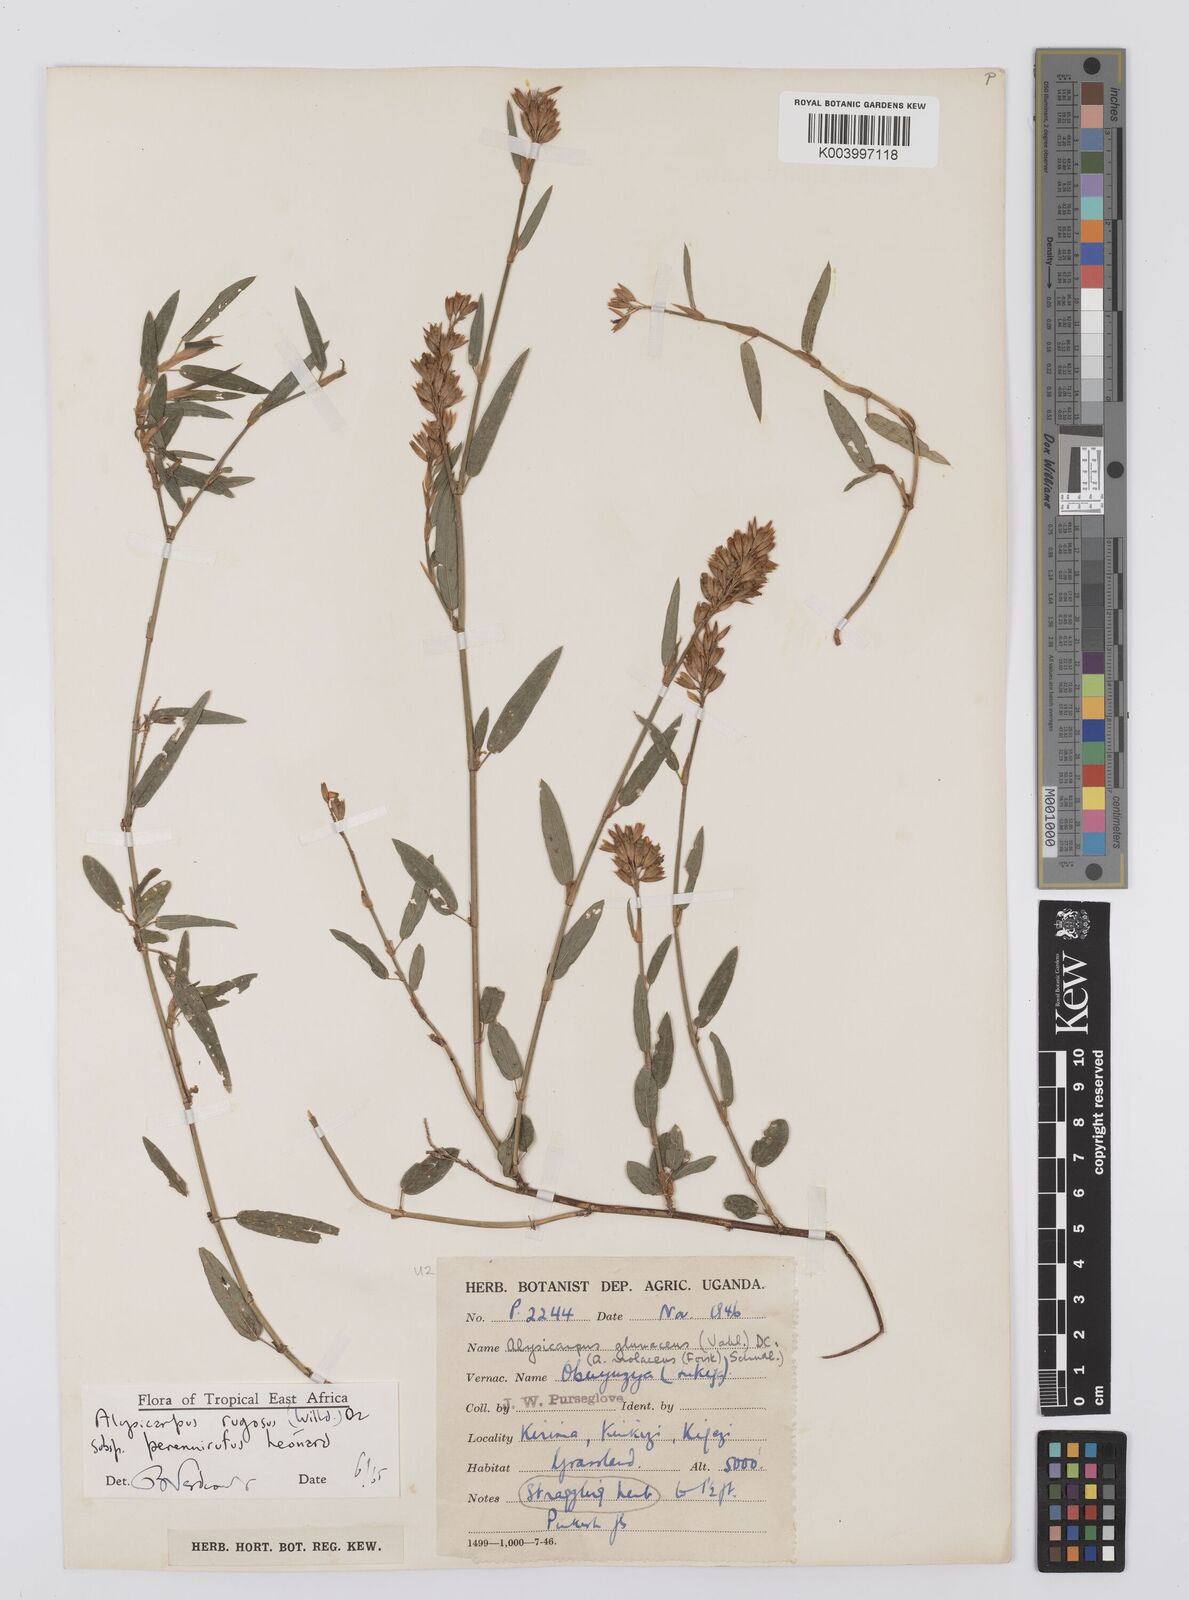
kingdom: Plantae
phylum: Tracheophyta
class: Magnoliopsida
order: Fabales
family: Fabaceae
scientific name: Fabaceae
